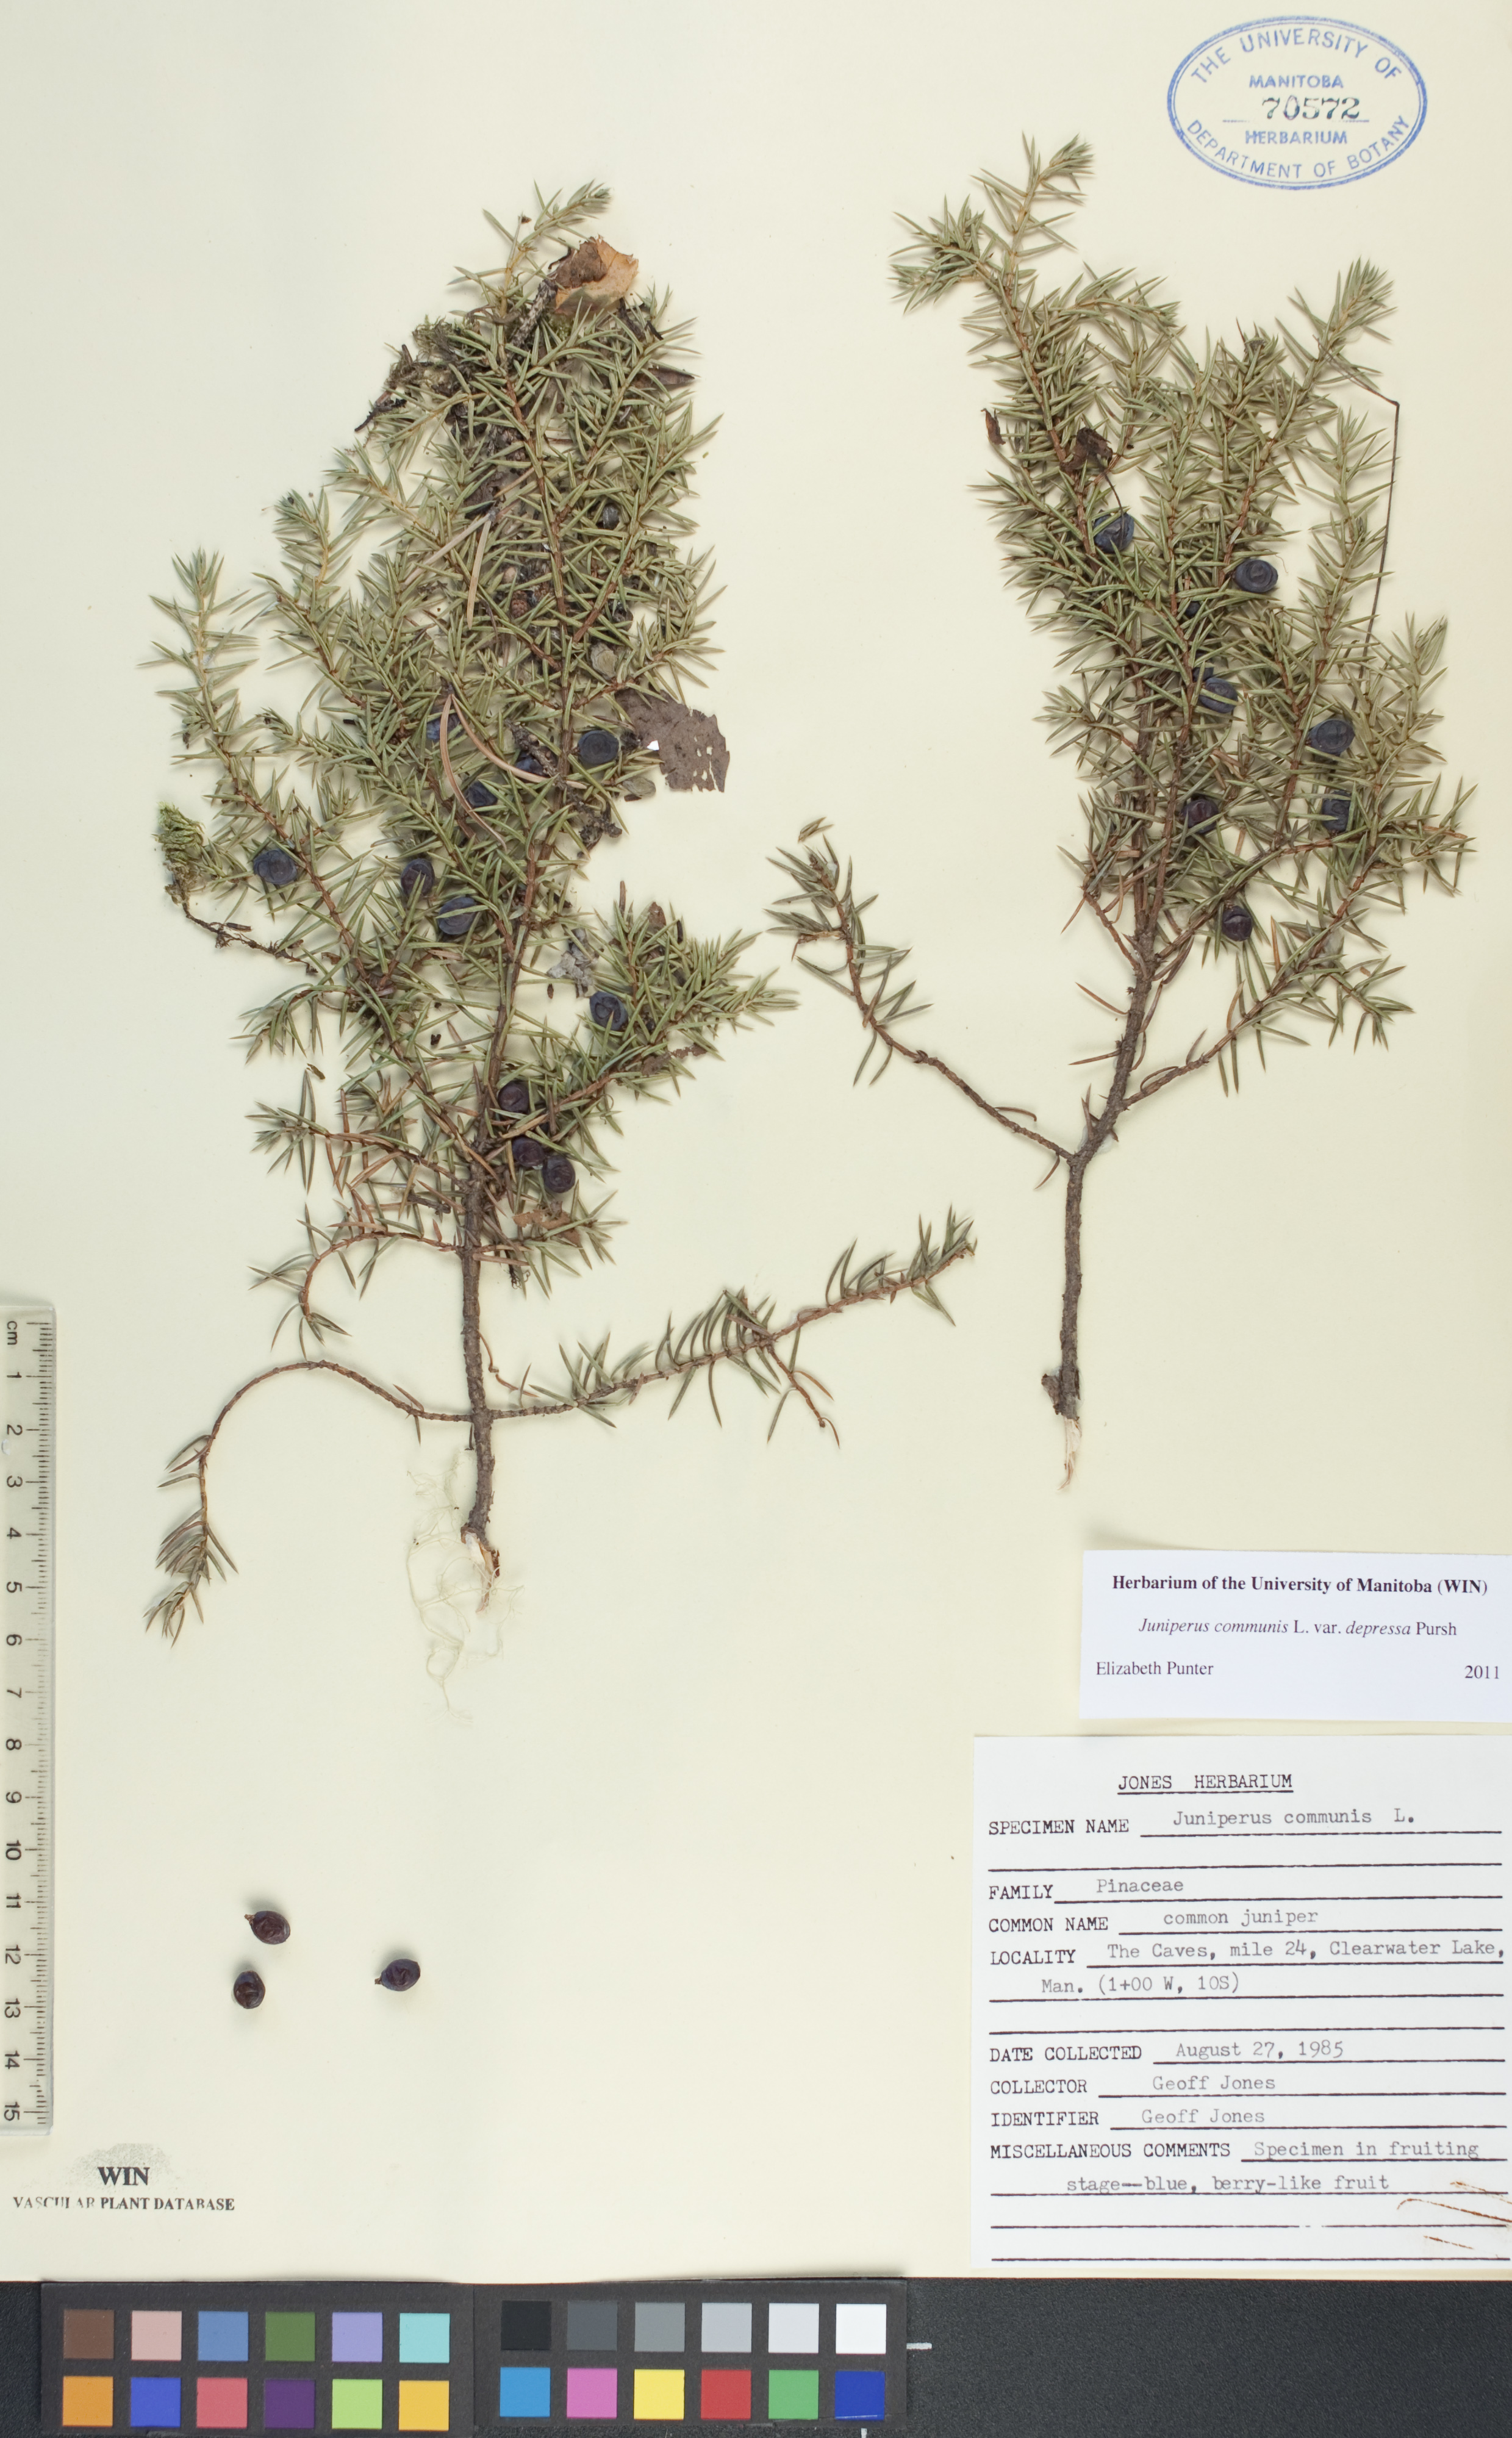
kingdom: Plantae
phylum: Tracheophyta
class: Pinopsida
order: Pinales
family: Cupressaceae
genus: Juniperus
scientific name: Juniperus communis
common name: Common juniper
